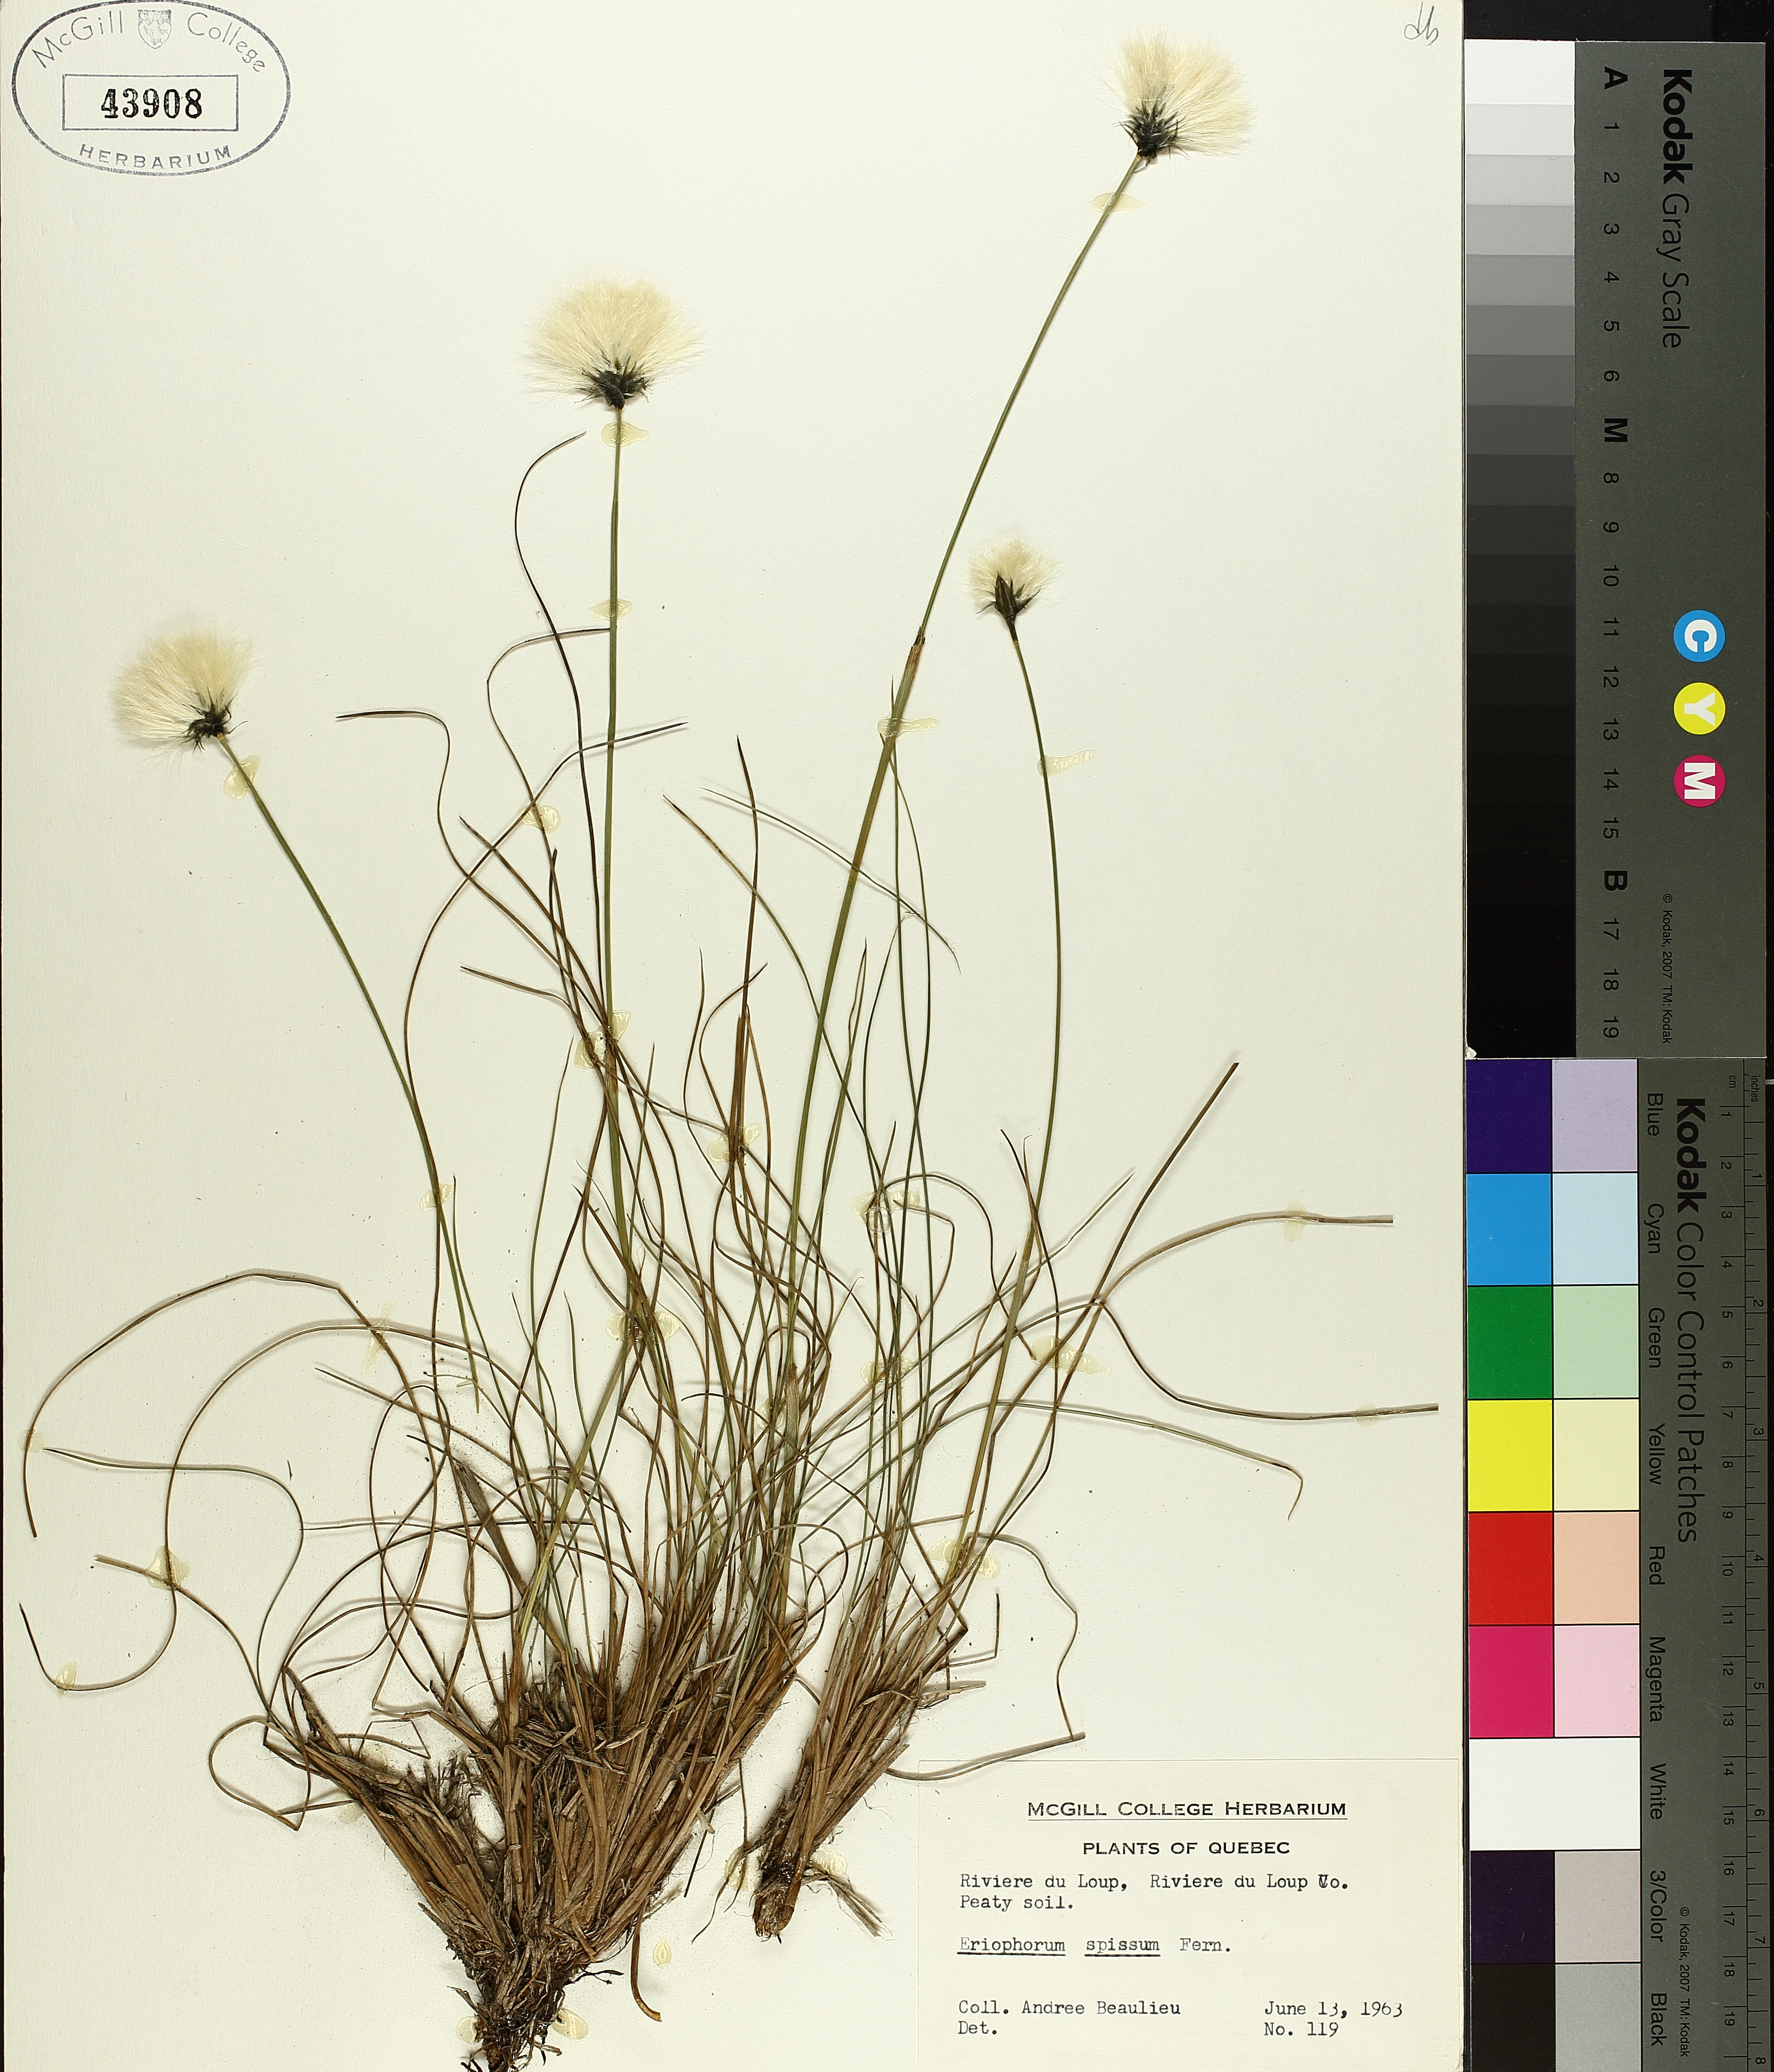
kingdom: Plantae
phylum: Tracheophyta
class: Liliopsida
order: Poales
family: Cyperaceae
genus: Eriophorum
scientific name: Eriophorum vaginatum
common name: Hare's-tail cottongrass
